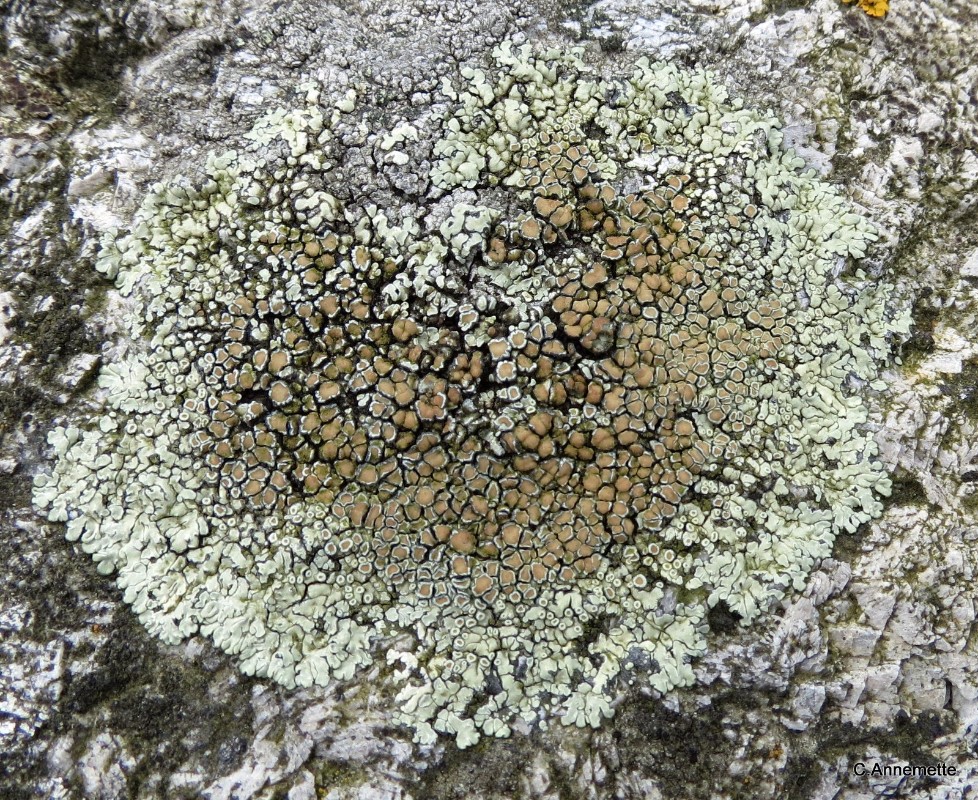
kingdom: Fungi
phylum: Ascomycota
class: Lecanoromycetes
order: Lecanorales
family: Lecanoraceae
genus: Protoparmeliopsis
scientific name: Protoparmeliopsis muralis
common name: randfliget kantskivelav
